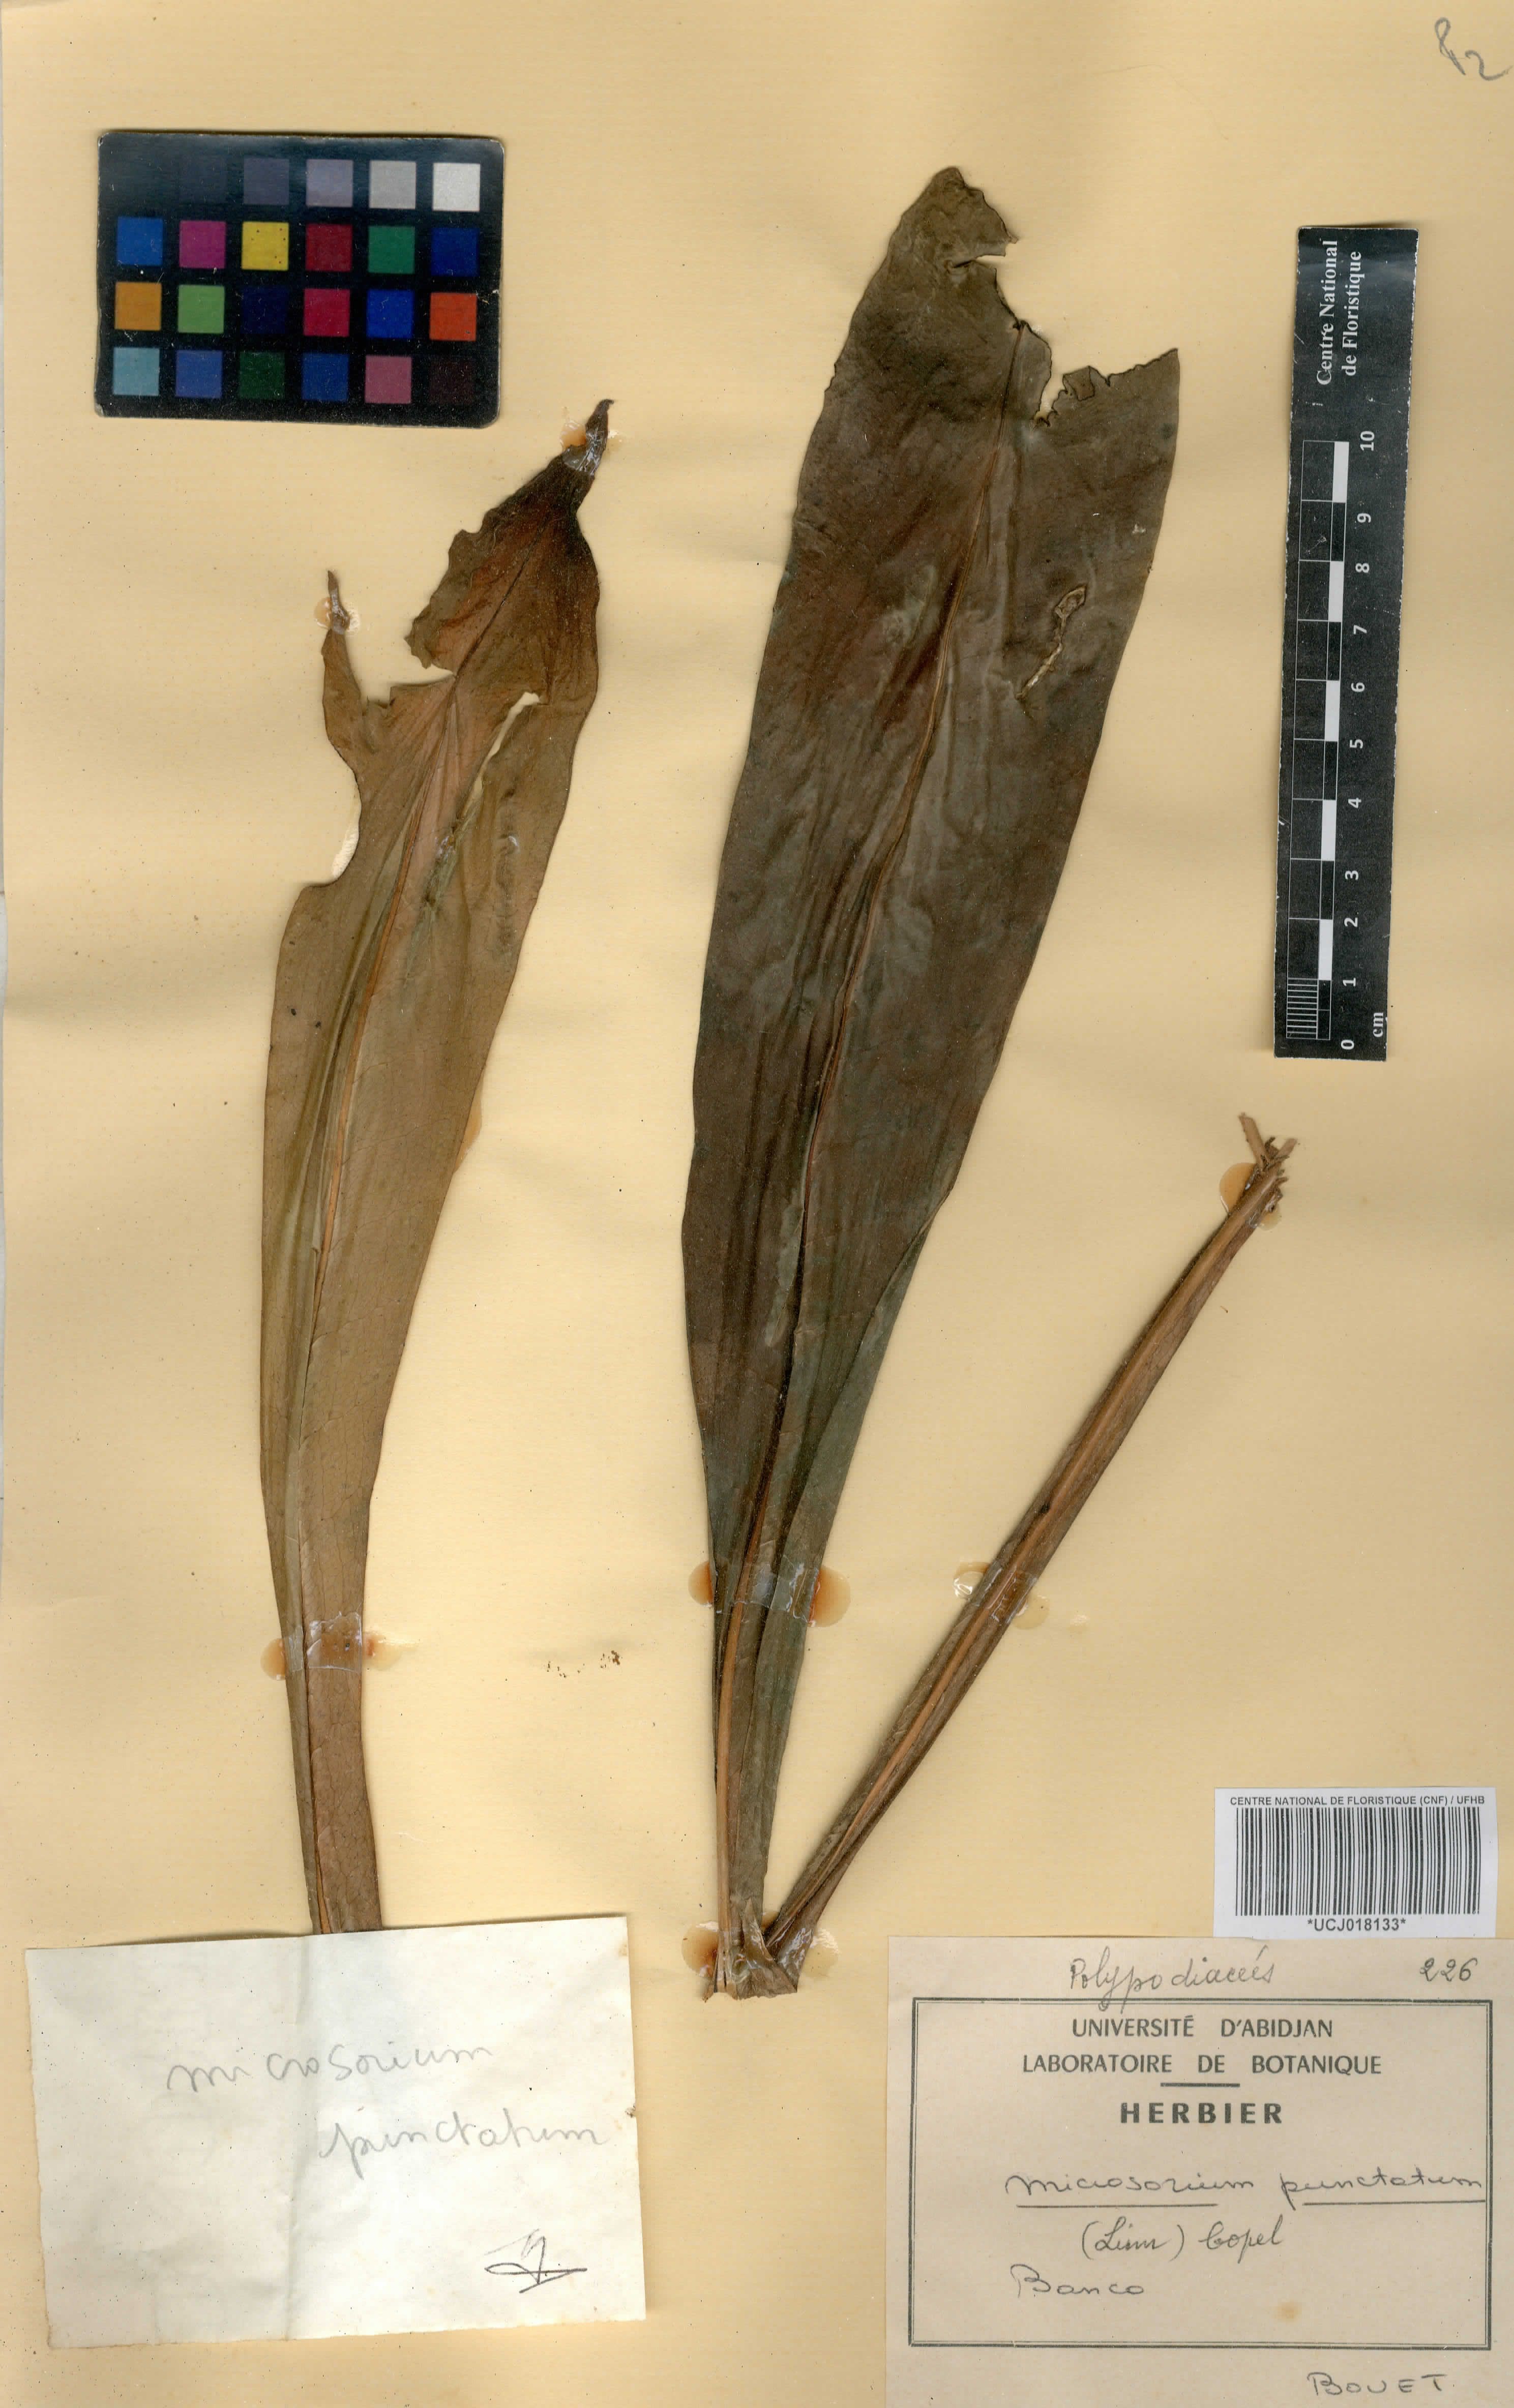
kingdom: Plantae
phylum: Tracheophyta
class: Polypodiopsida
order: Polypodiales
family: Polypodiaceae
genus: Microsorum
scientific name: Microsorum punctatum
